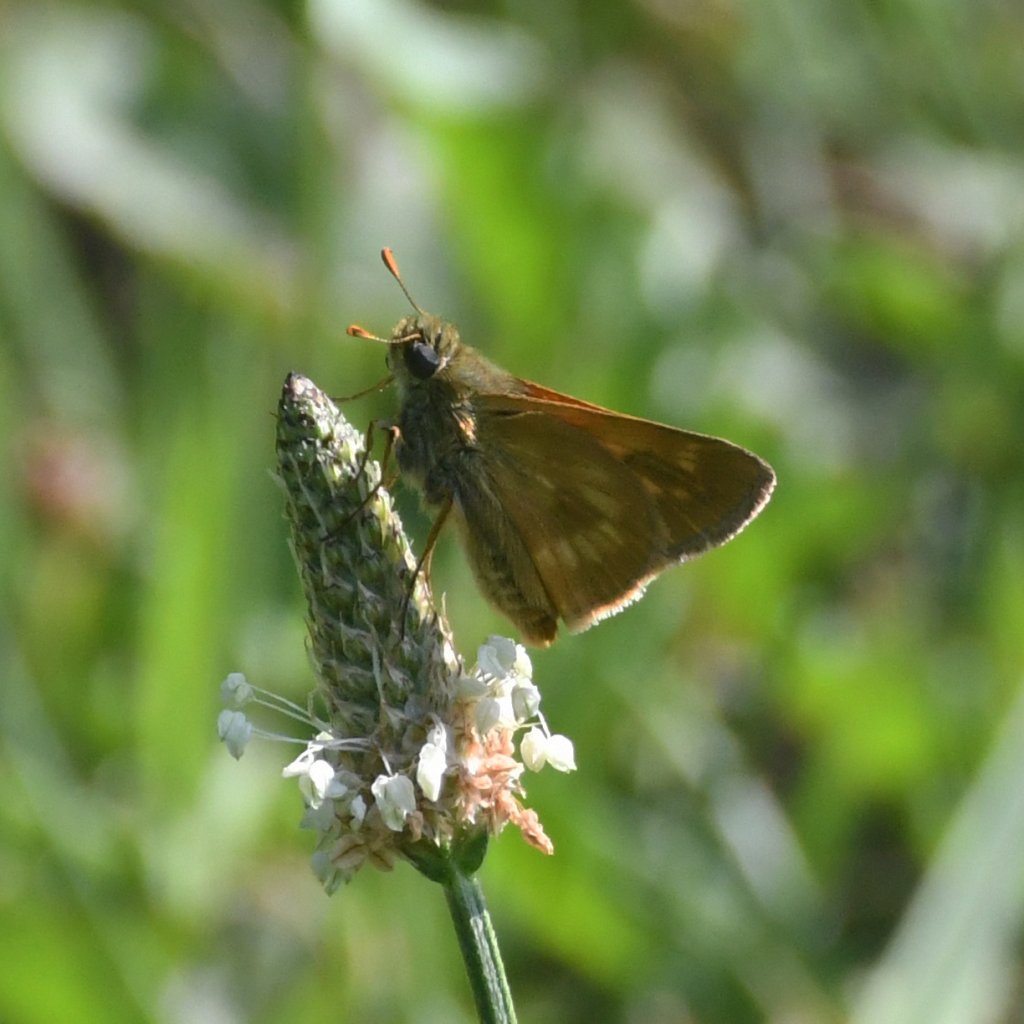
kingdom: Animalia
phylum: Arthropoda
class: Insecta
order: Lepidoptera
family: Hesperiidae
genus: Polites
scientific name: Polites
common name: Long Dash Skipper
